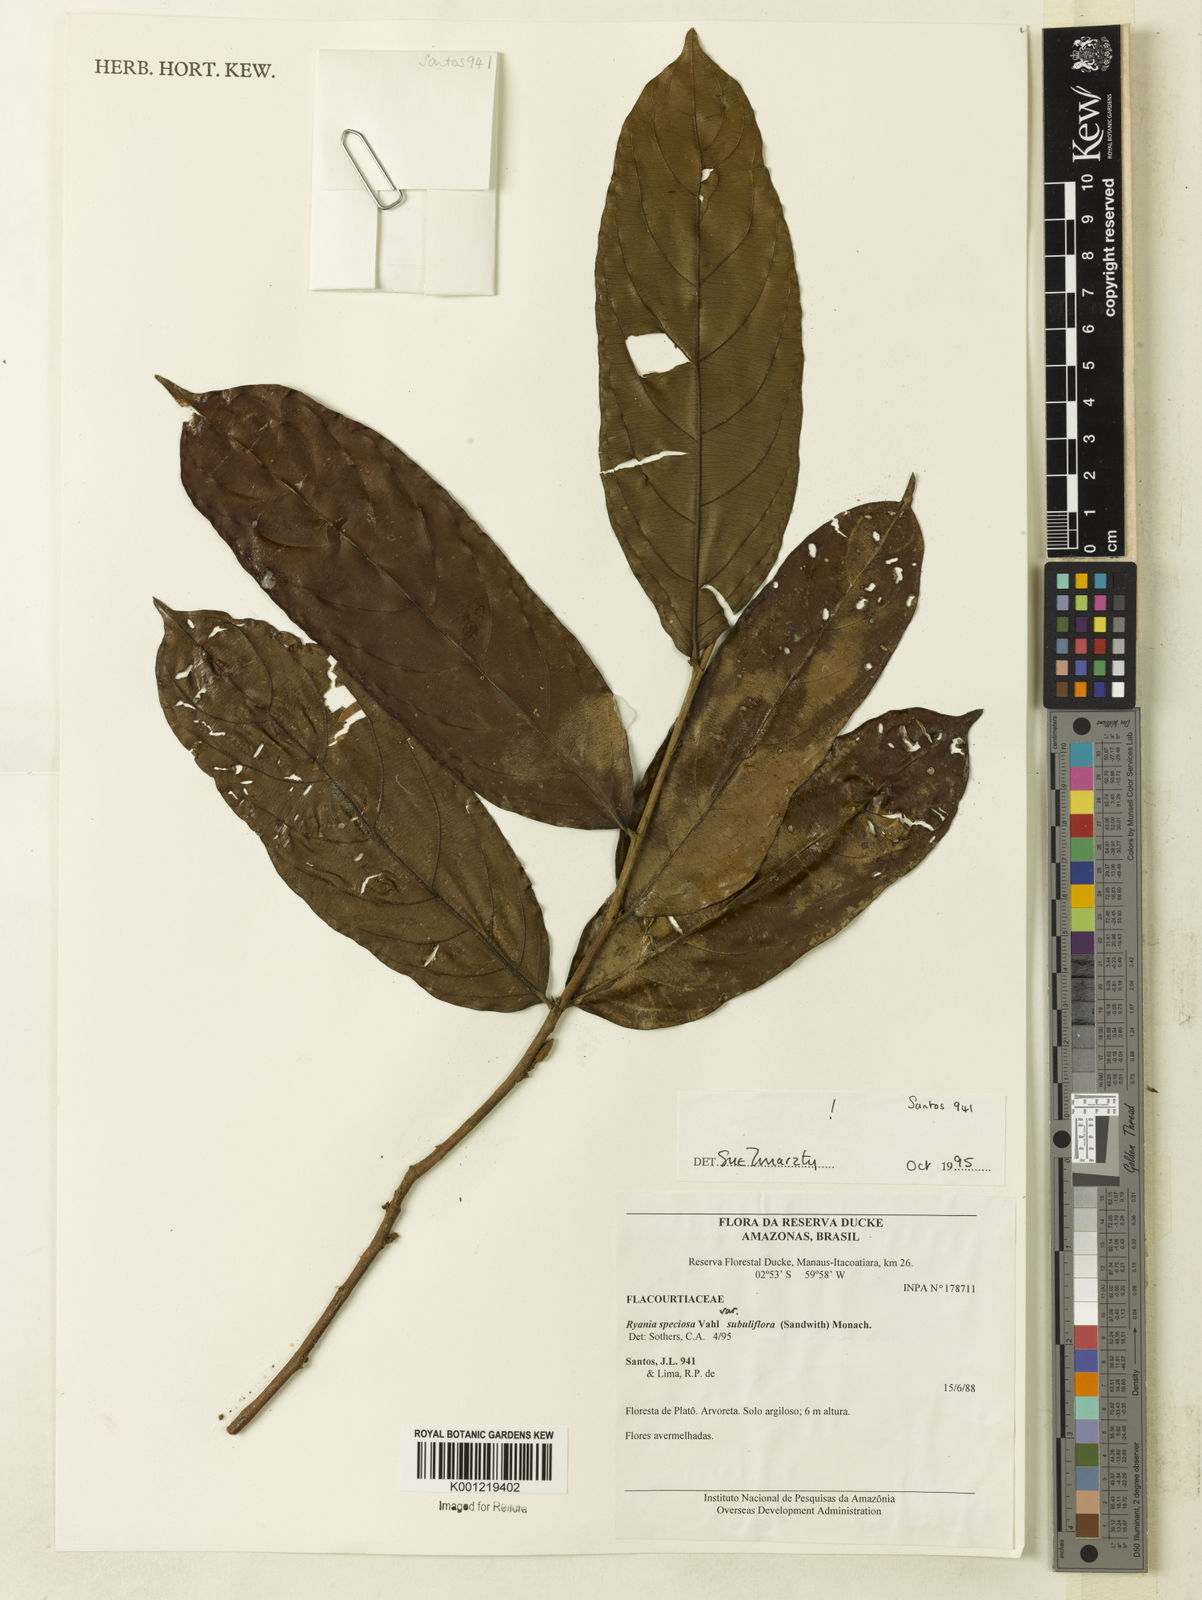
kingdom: Plantae
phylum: Tracheophyta
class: Magnoliopsida
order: Malpighiales
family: Salicaceae
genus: Ryania
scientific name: Ryania speciosa
